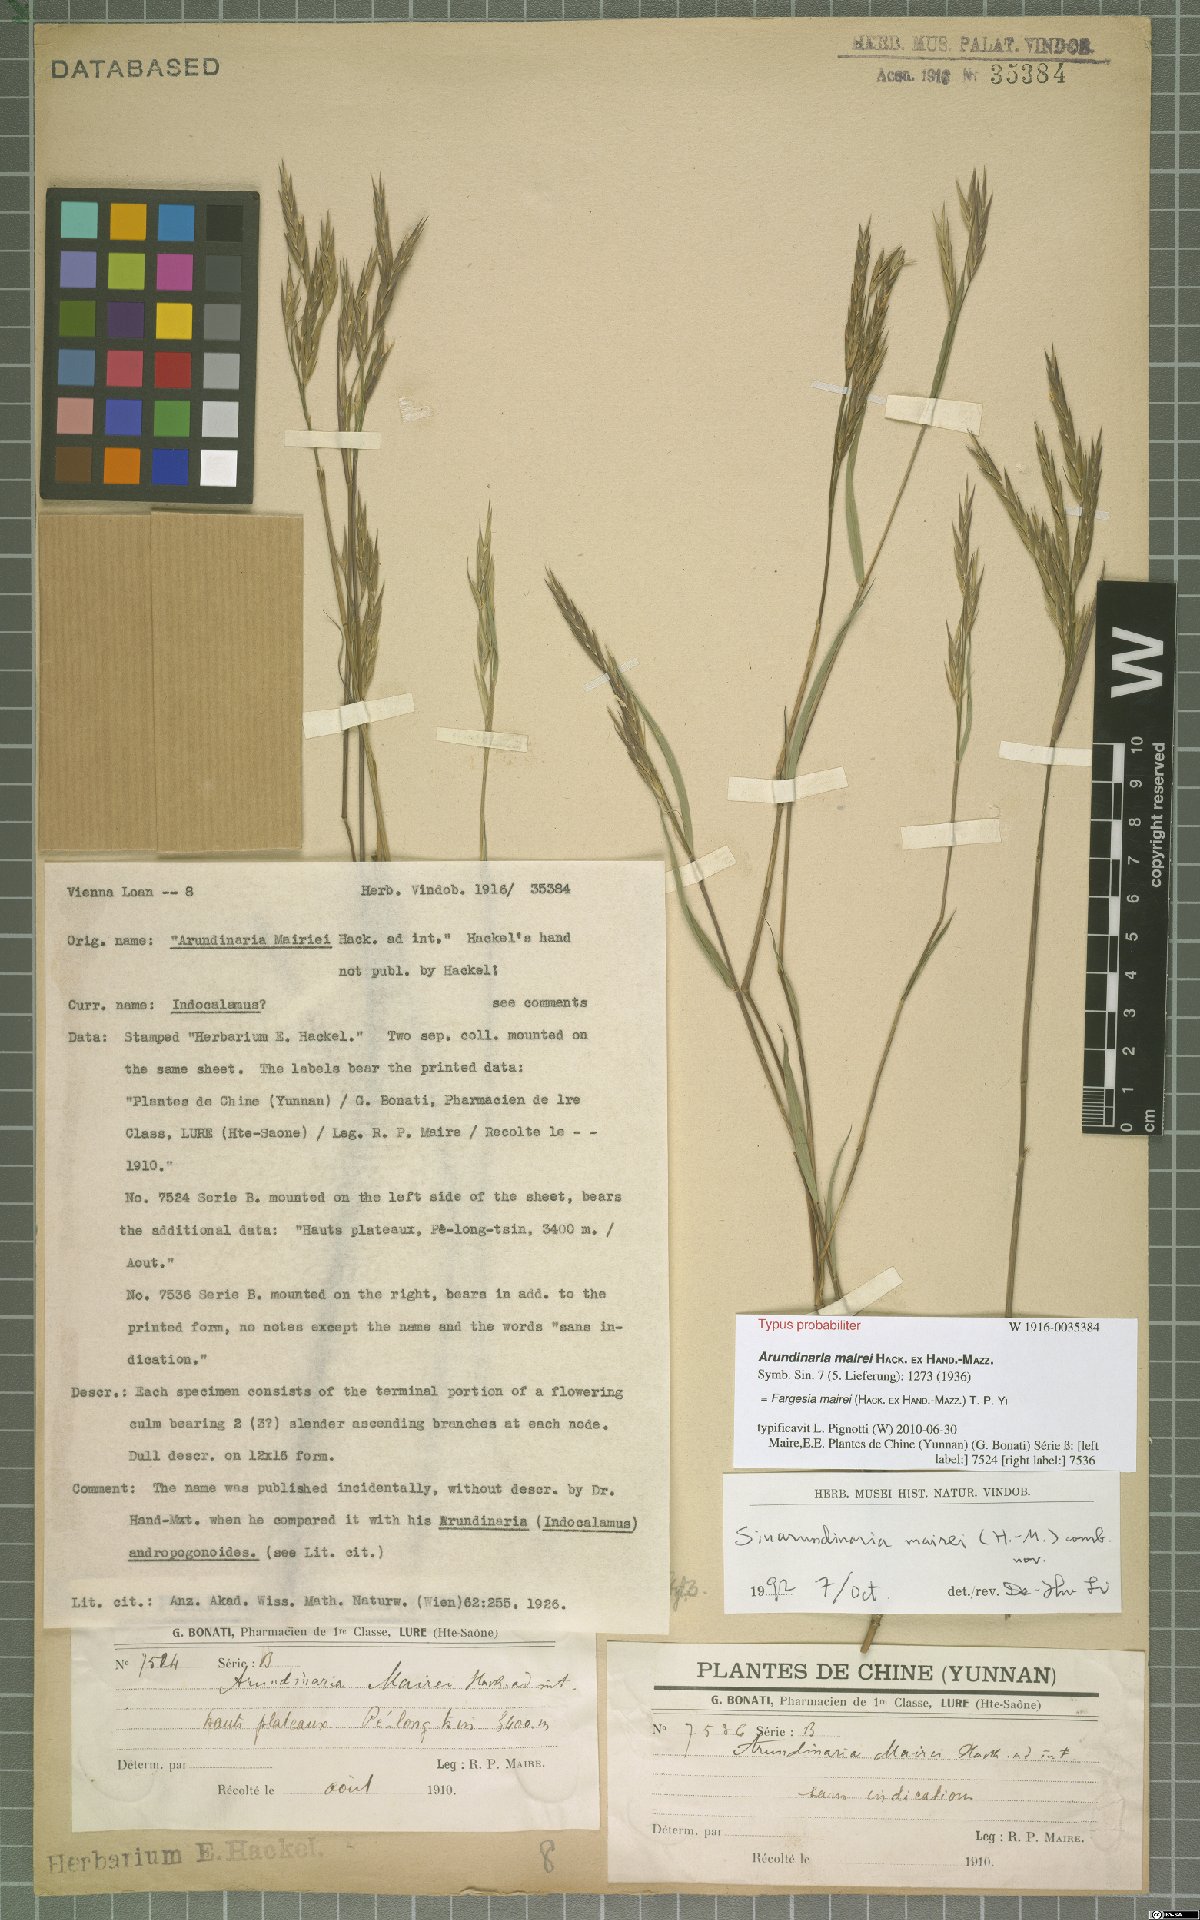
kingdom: Plantae
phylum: Tracheophyta
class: Liliopsida
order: Poales
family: Poaceae
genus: Borinda
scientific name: Borinda mairei
